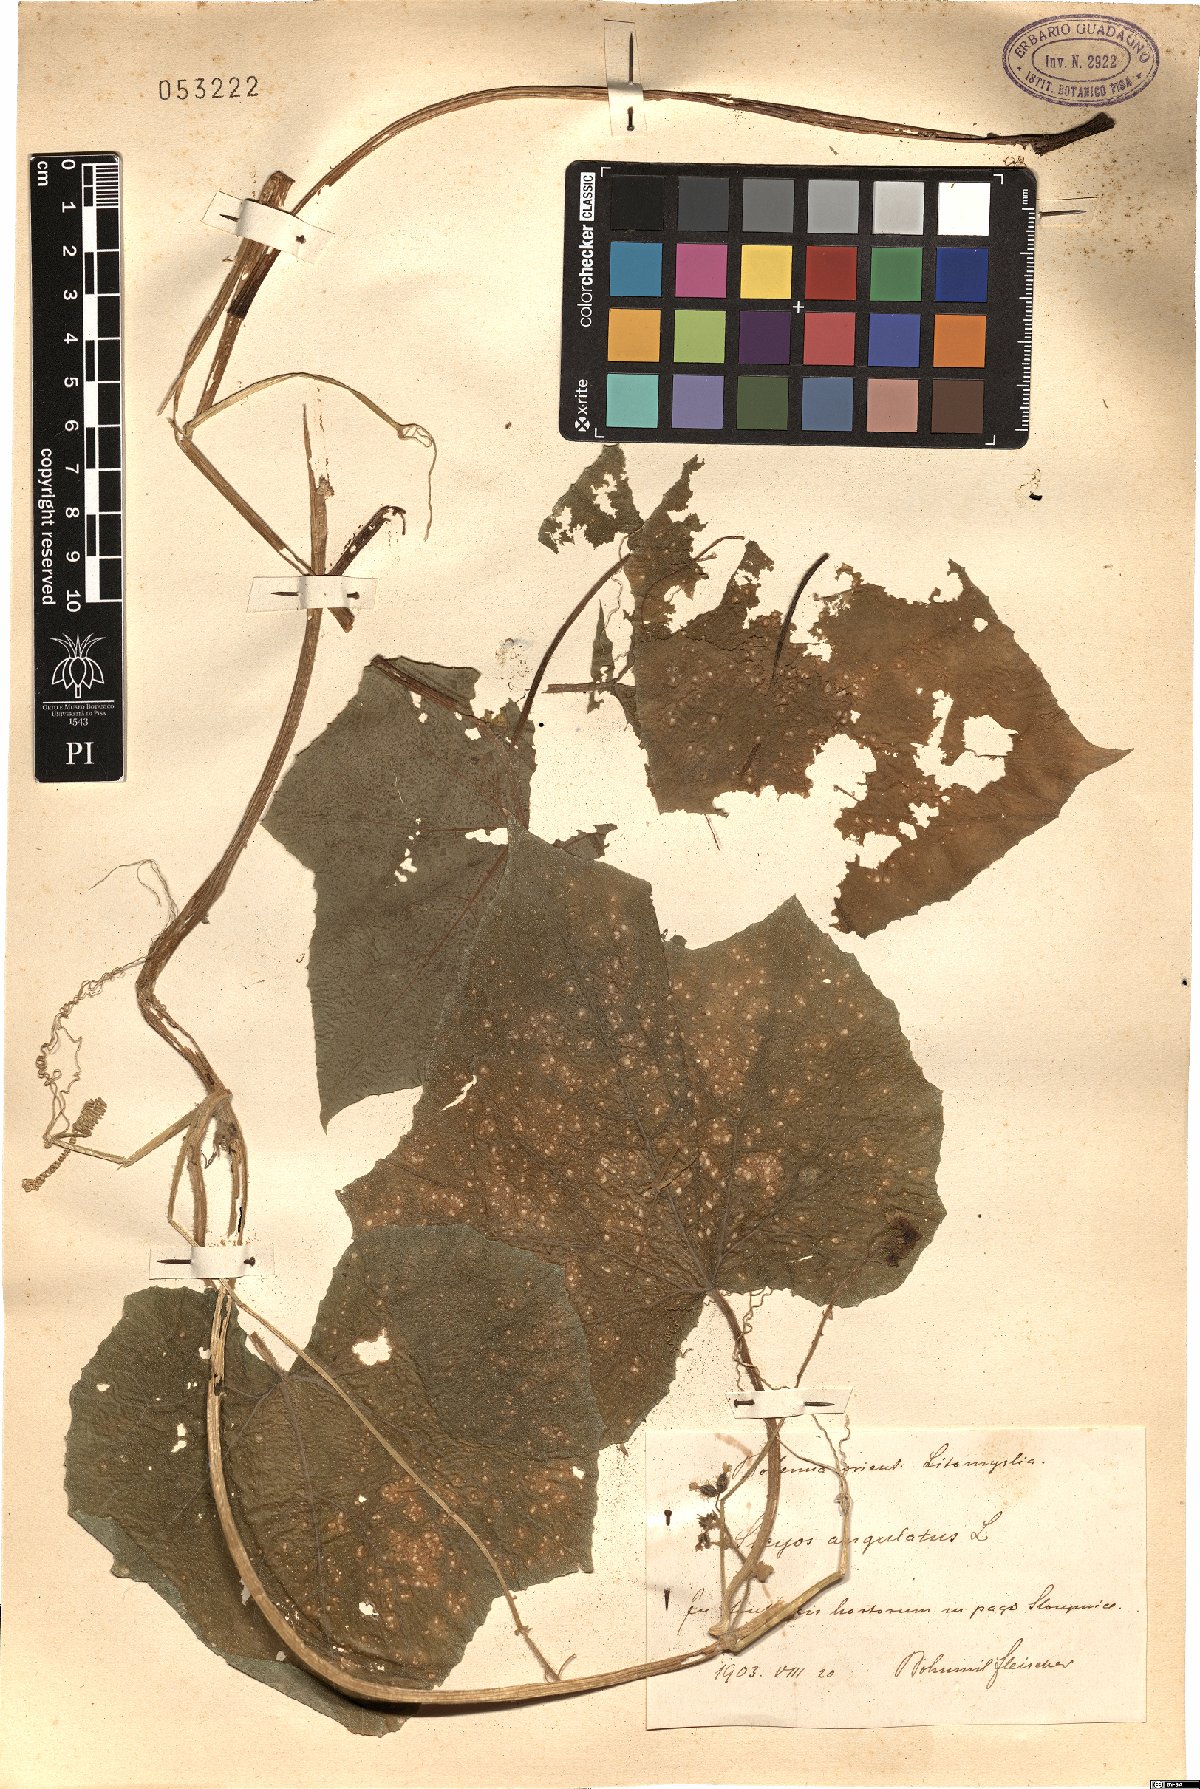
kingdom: Plantae
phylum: Tracheophyta
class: Magnoliopsida
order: Cucurbitales
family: Cucurbitaceae
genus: Sicyos
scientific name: Sicyos angulatus
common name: Angled burr cucumber
